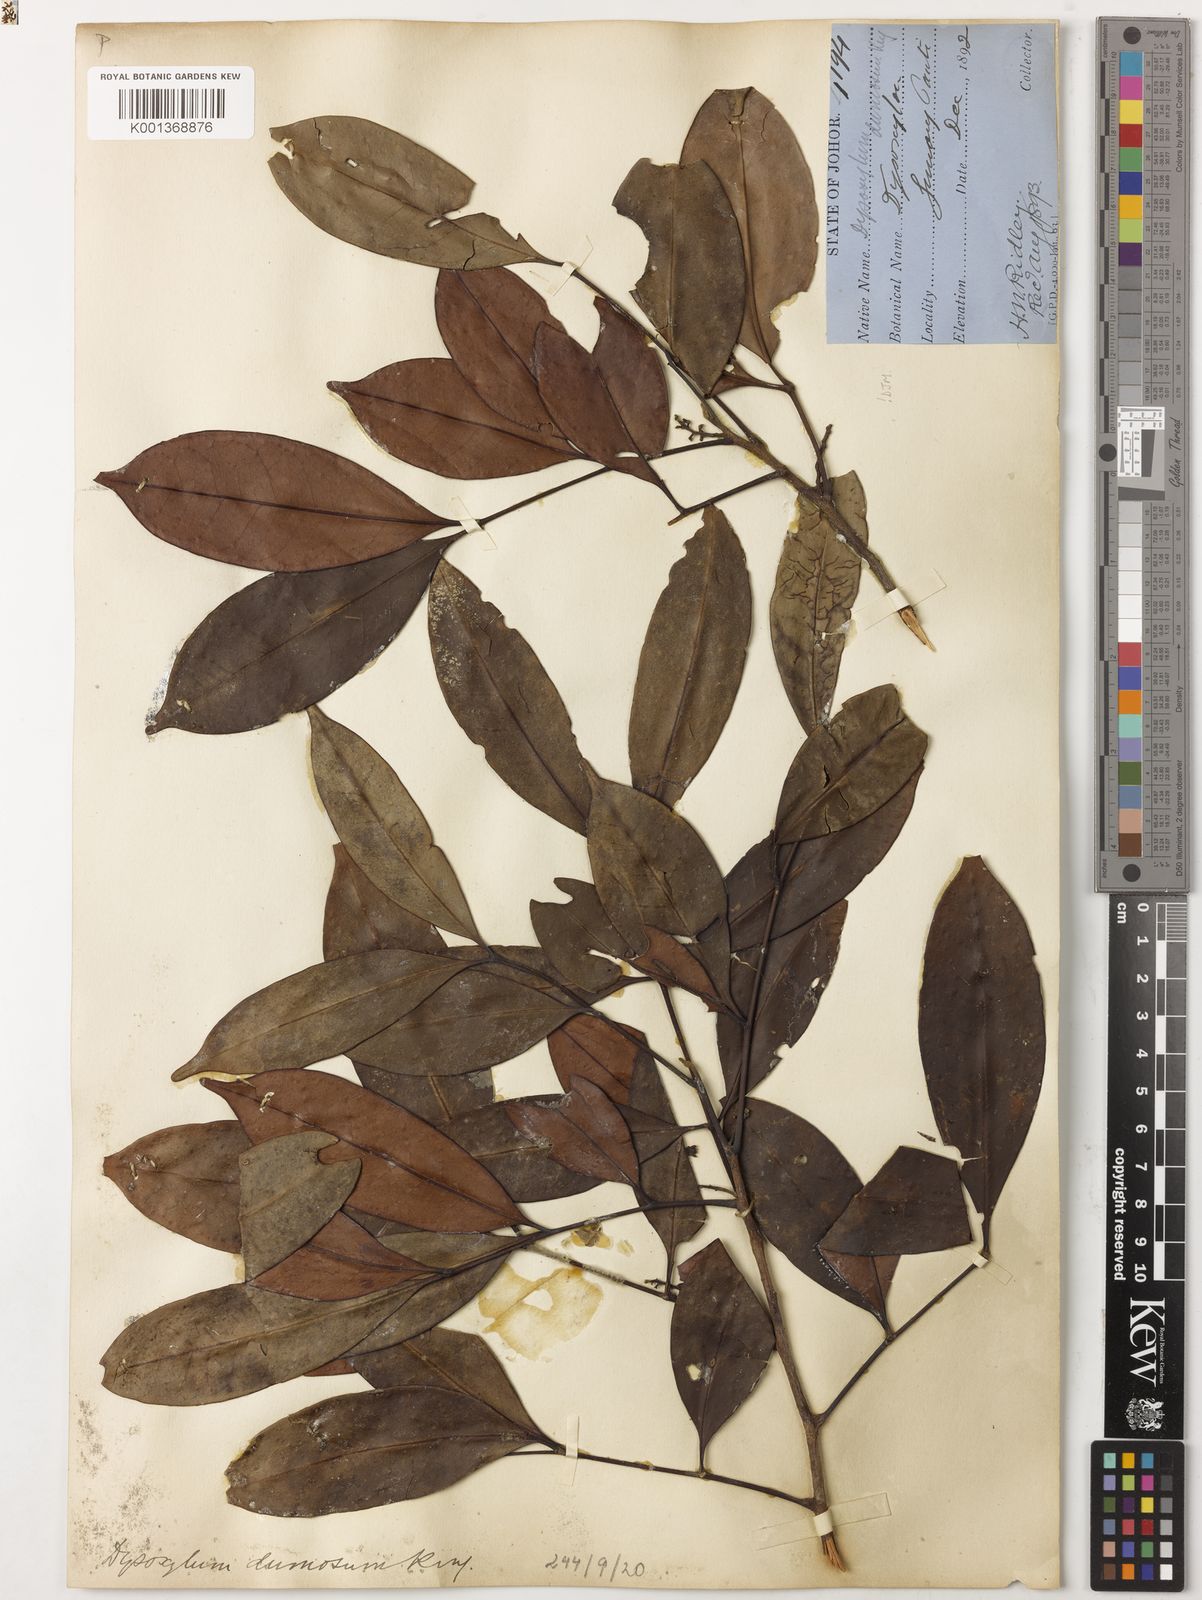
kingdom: Plantae
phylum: Tracheophyta
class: Magnoliopsida
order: Sapindales
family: Meliaceae
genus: Pseudocarapa
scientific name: Pseudocarapa dumosa
